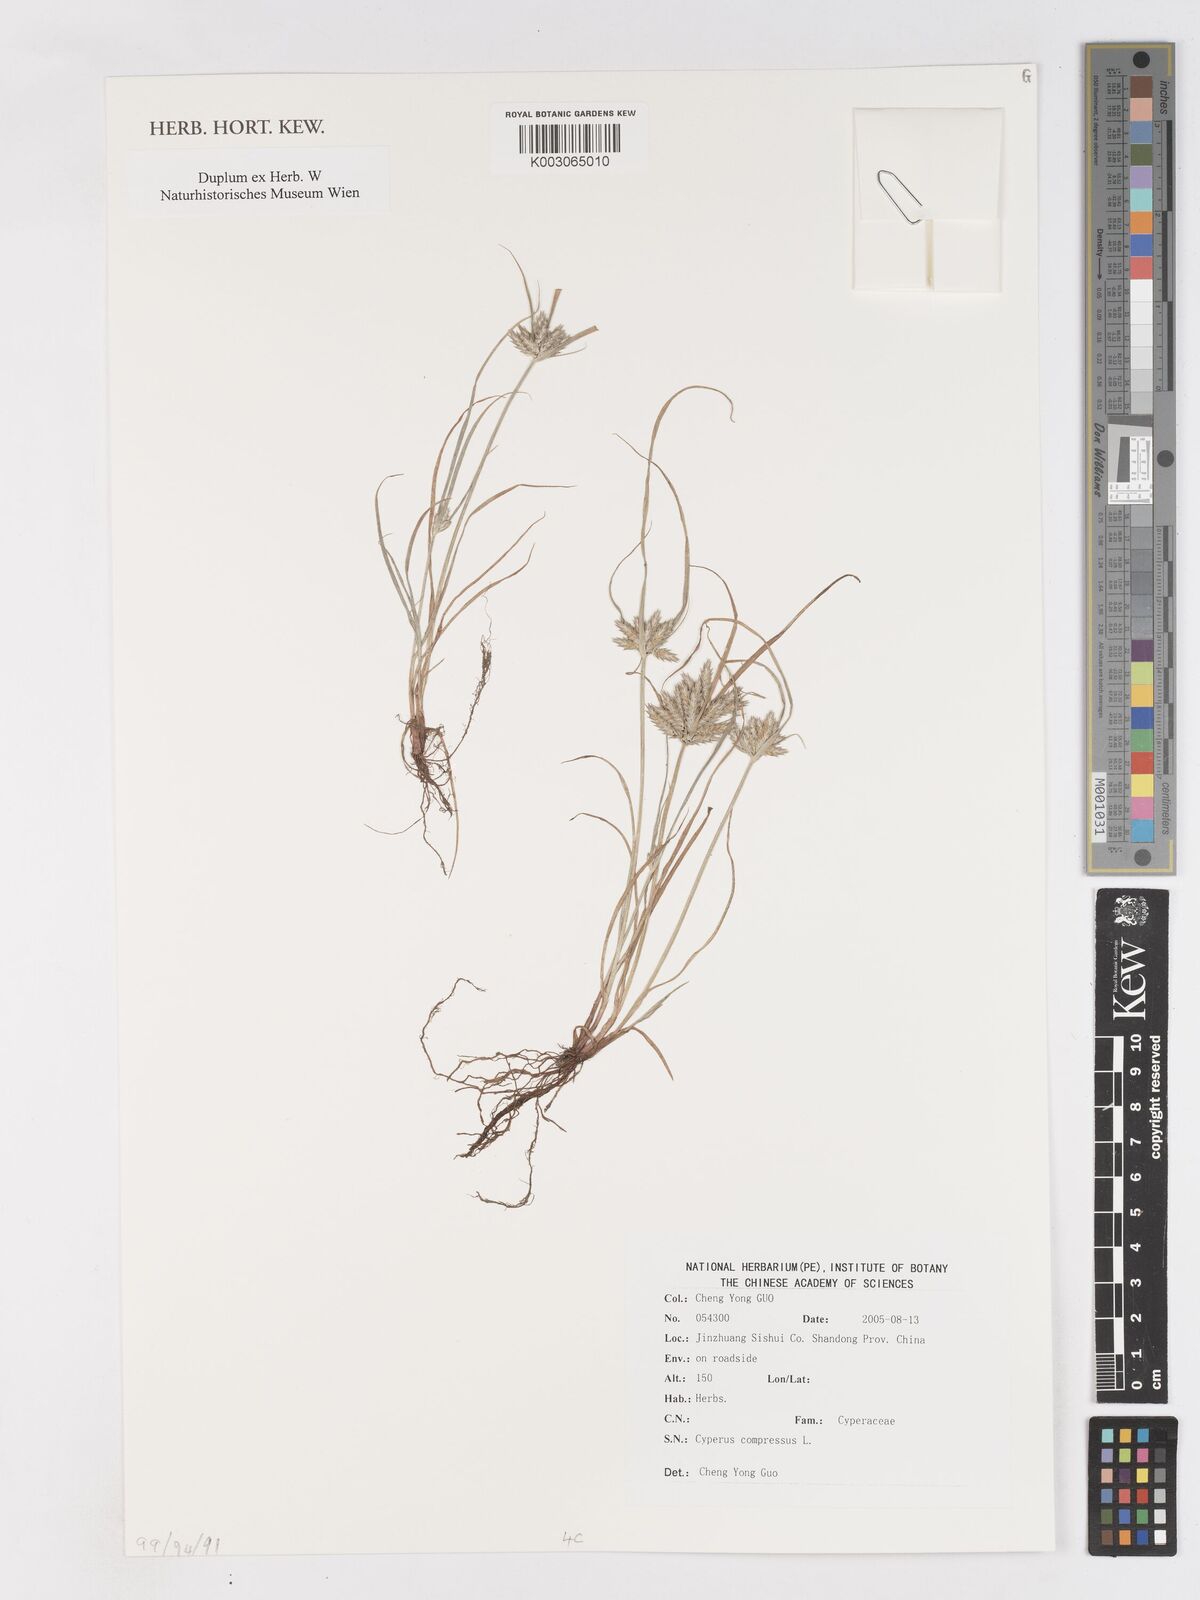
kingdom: Plantae
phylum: Tracheophyta
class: Liliopsida
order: Poales
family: Cyperaceae
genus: Cyperus
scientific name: Cyperus compressus
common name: Poorland flatsedge
